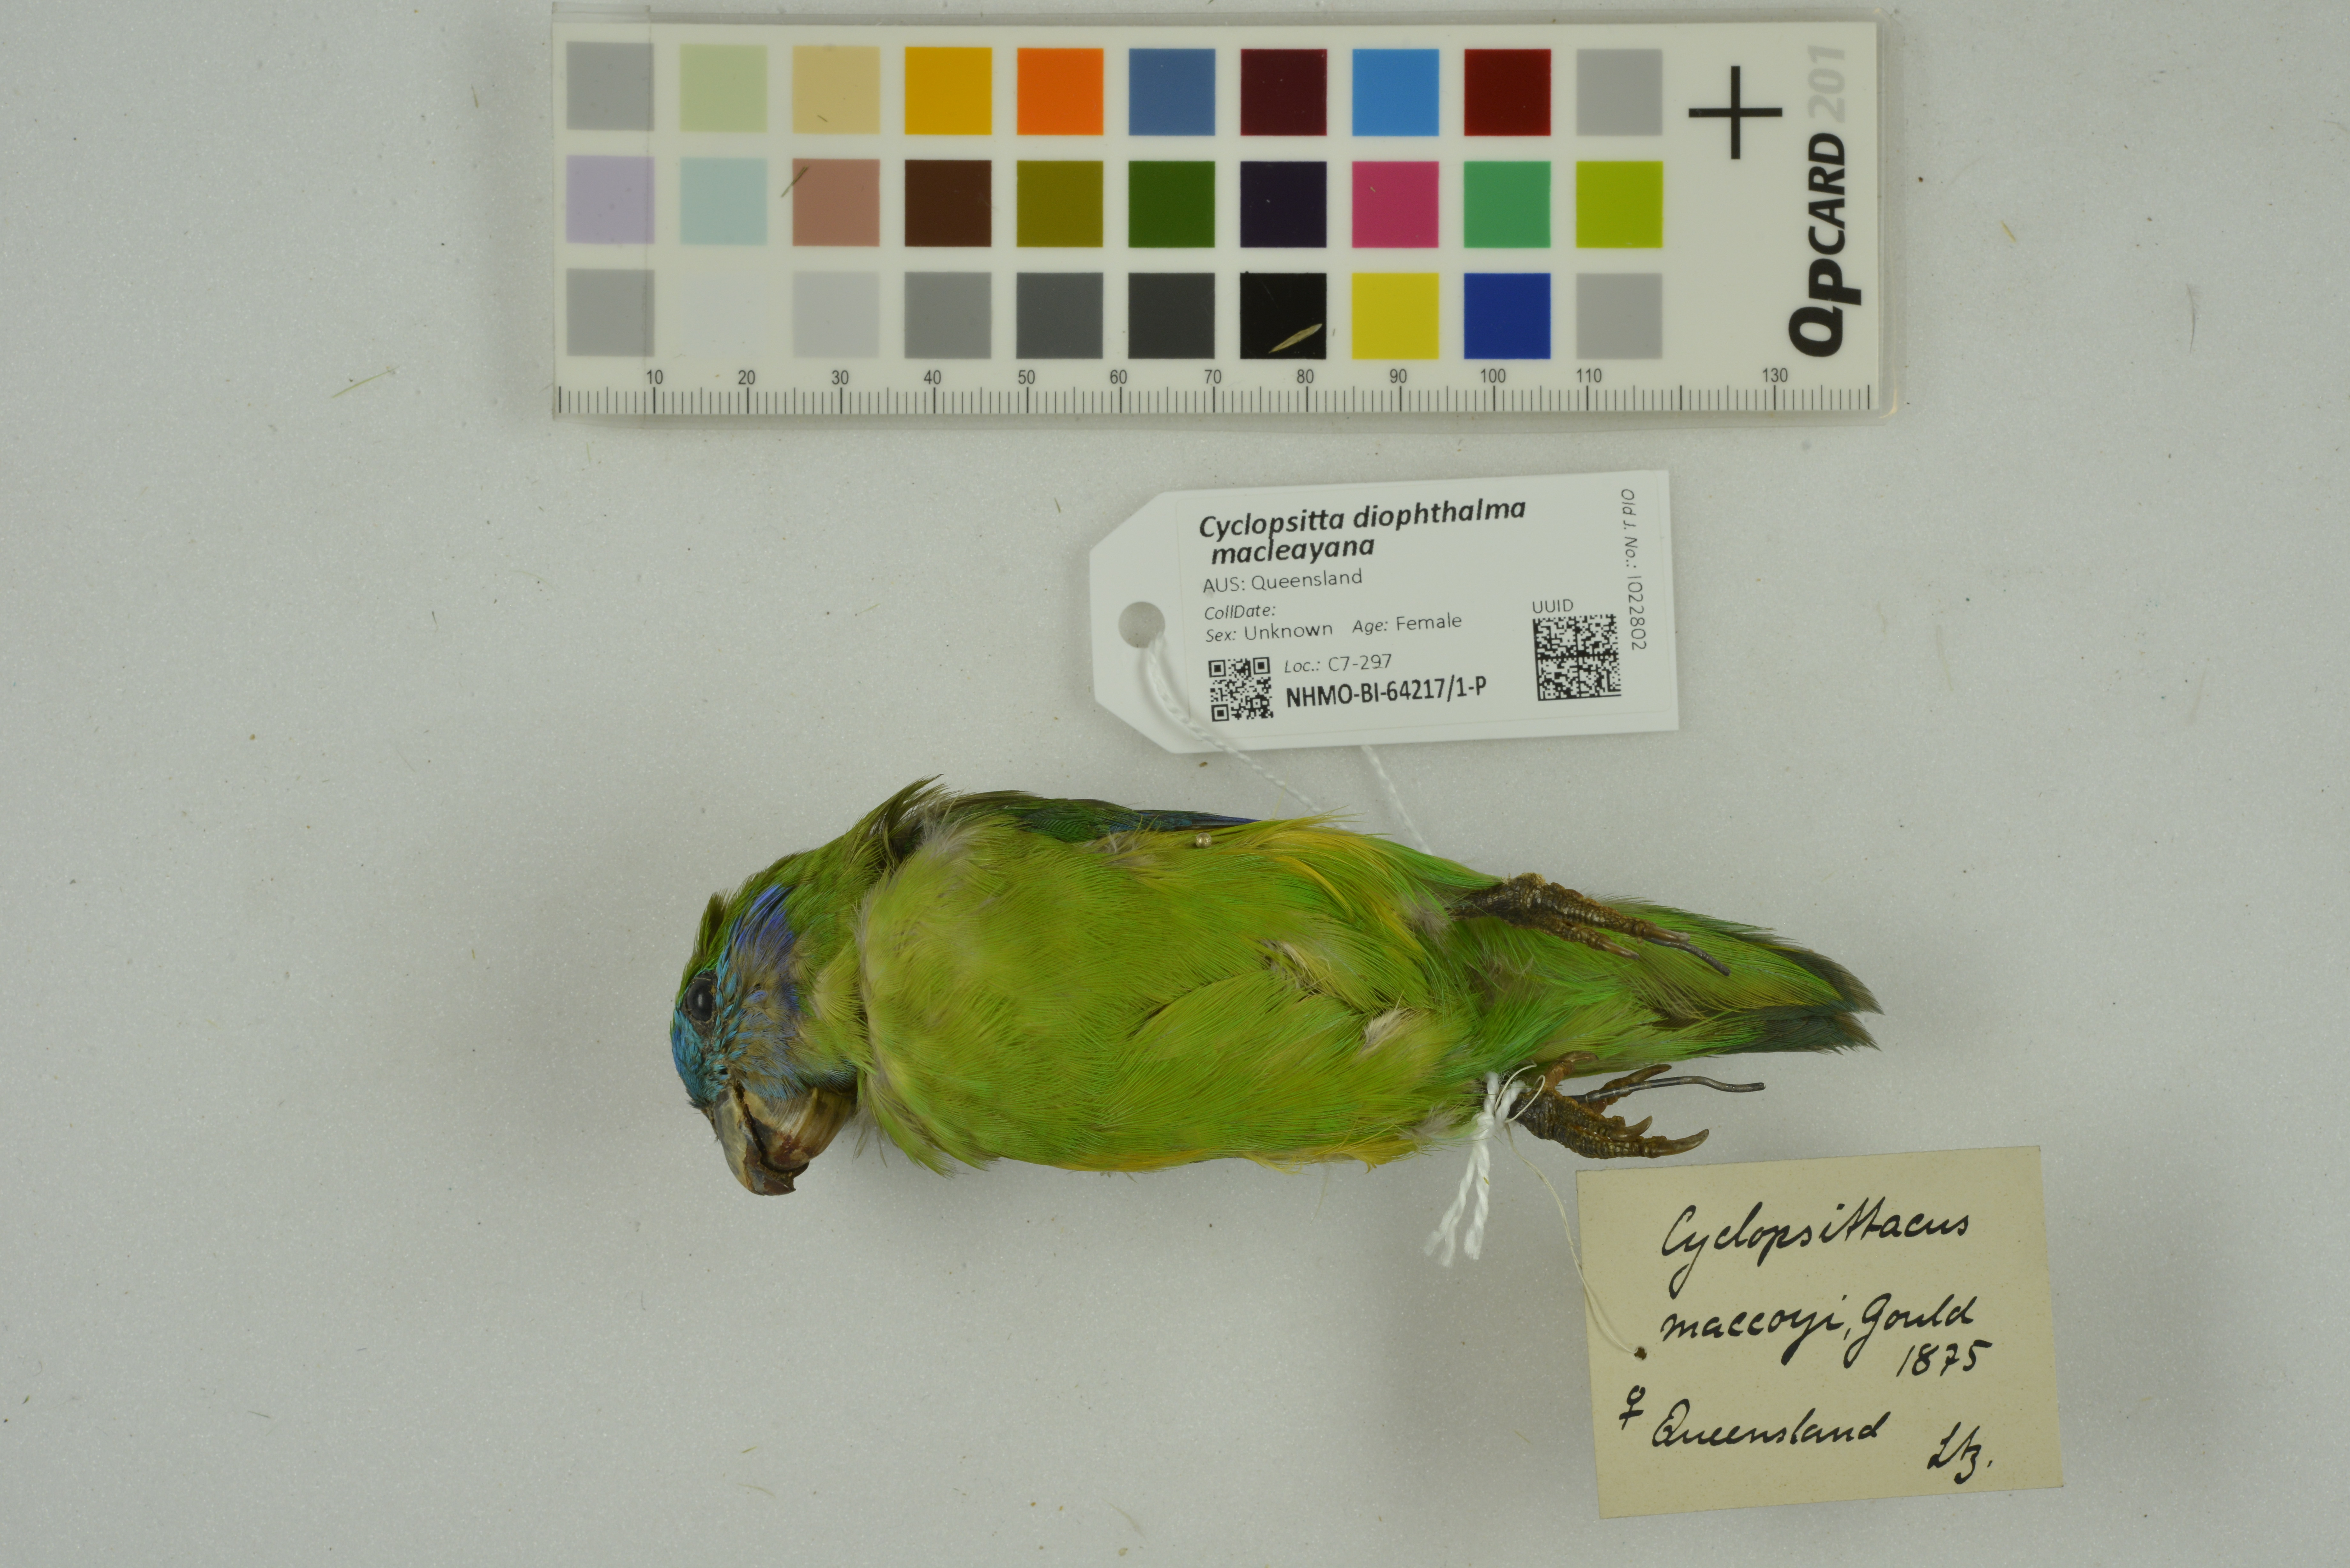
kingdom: Animalia
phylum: Chordata
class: Aves
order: Psittaciformes
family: Psittacidae
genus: Cyclopsitta
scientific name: Cyclopsitta diophthalma
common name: Double-eyed fig parrot
